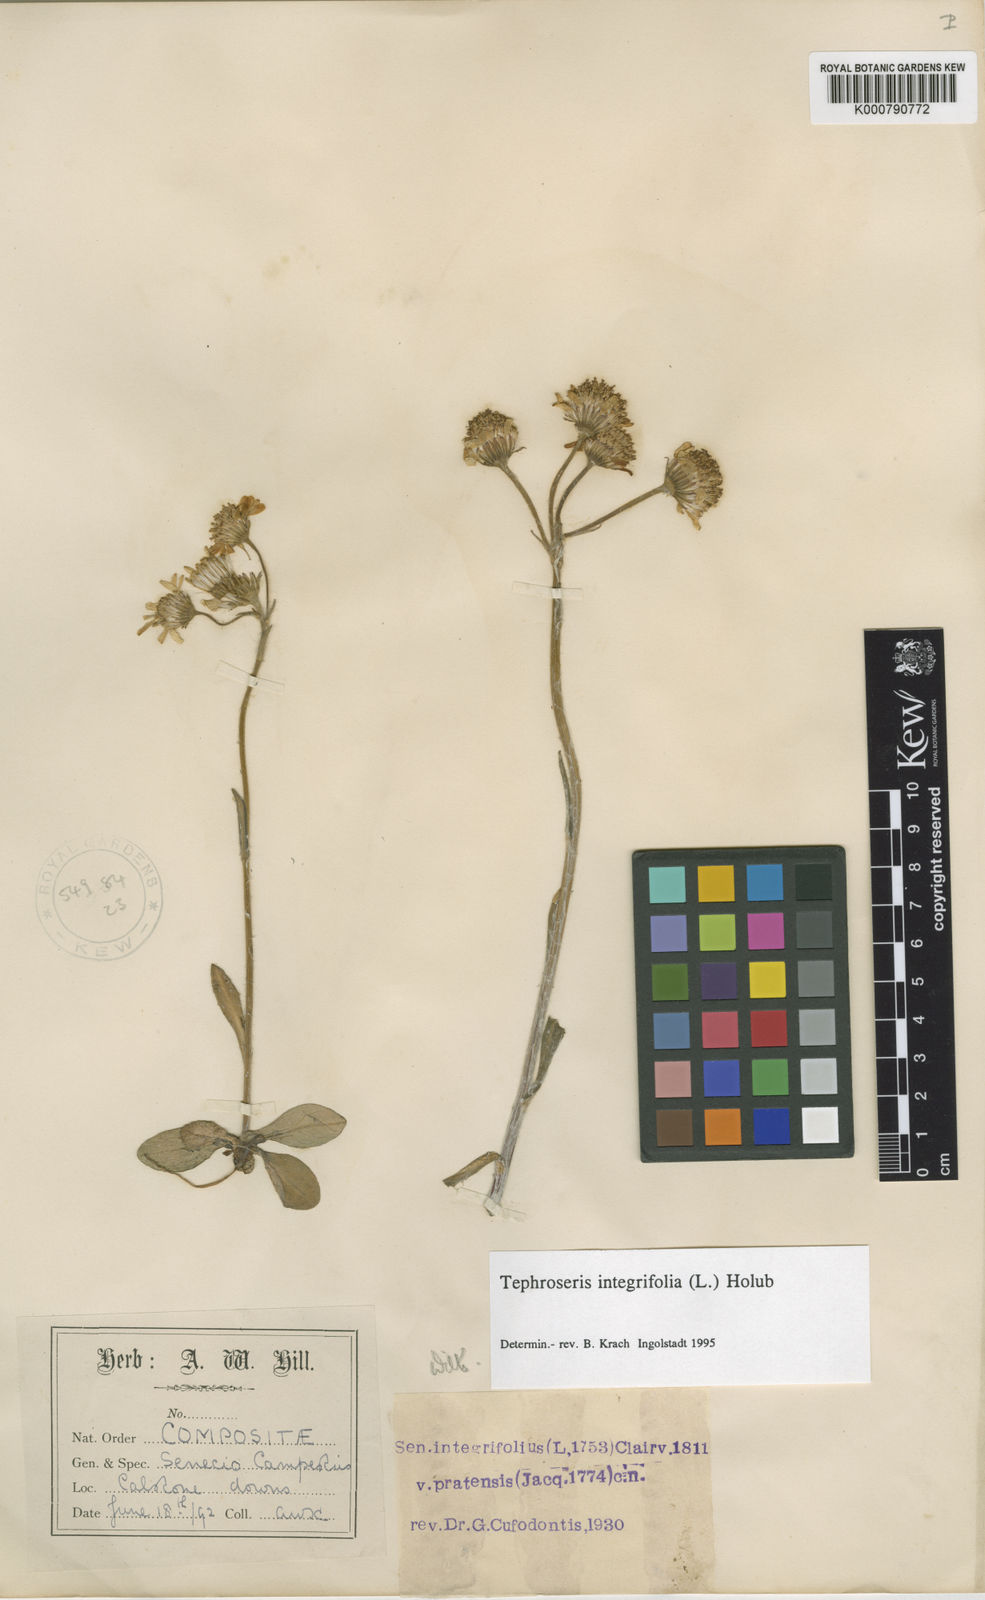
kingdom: Plantae
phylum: Tracheophyta
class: Magnoliopsida
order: Asterales
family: Asteraceae
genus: Tephroseris
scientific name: Tephroseris integrifolia
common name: Field fleawort
